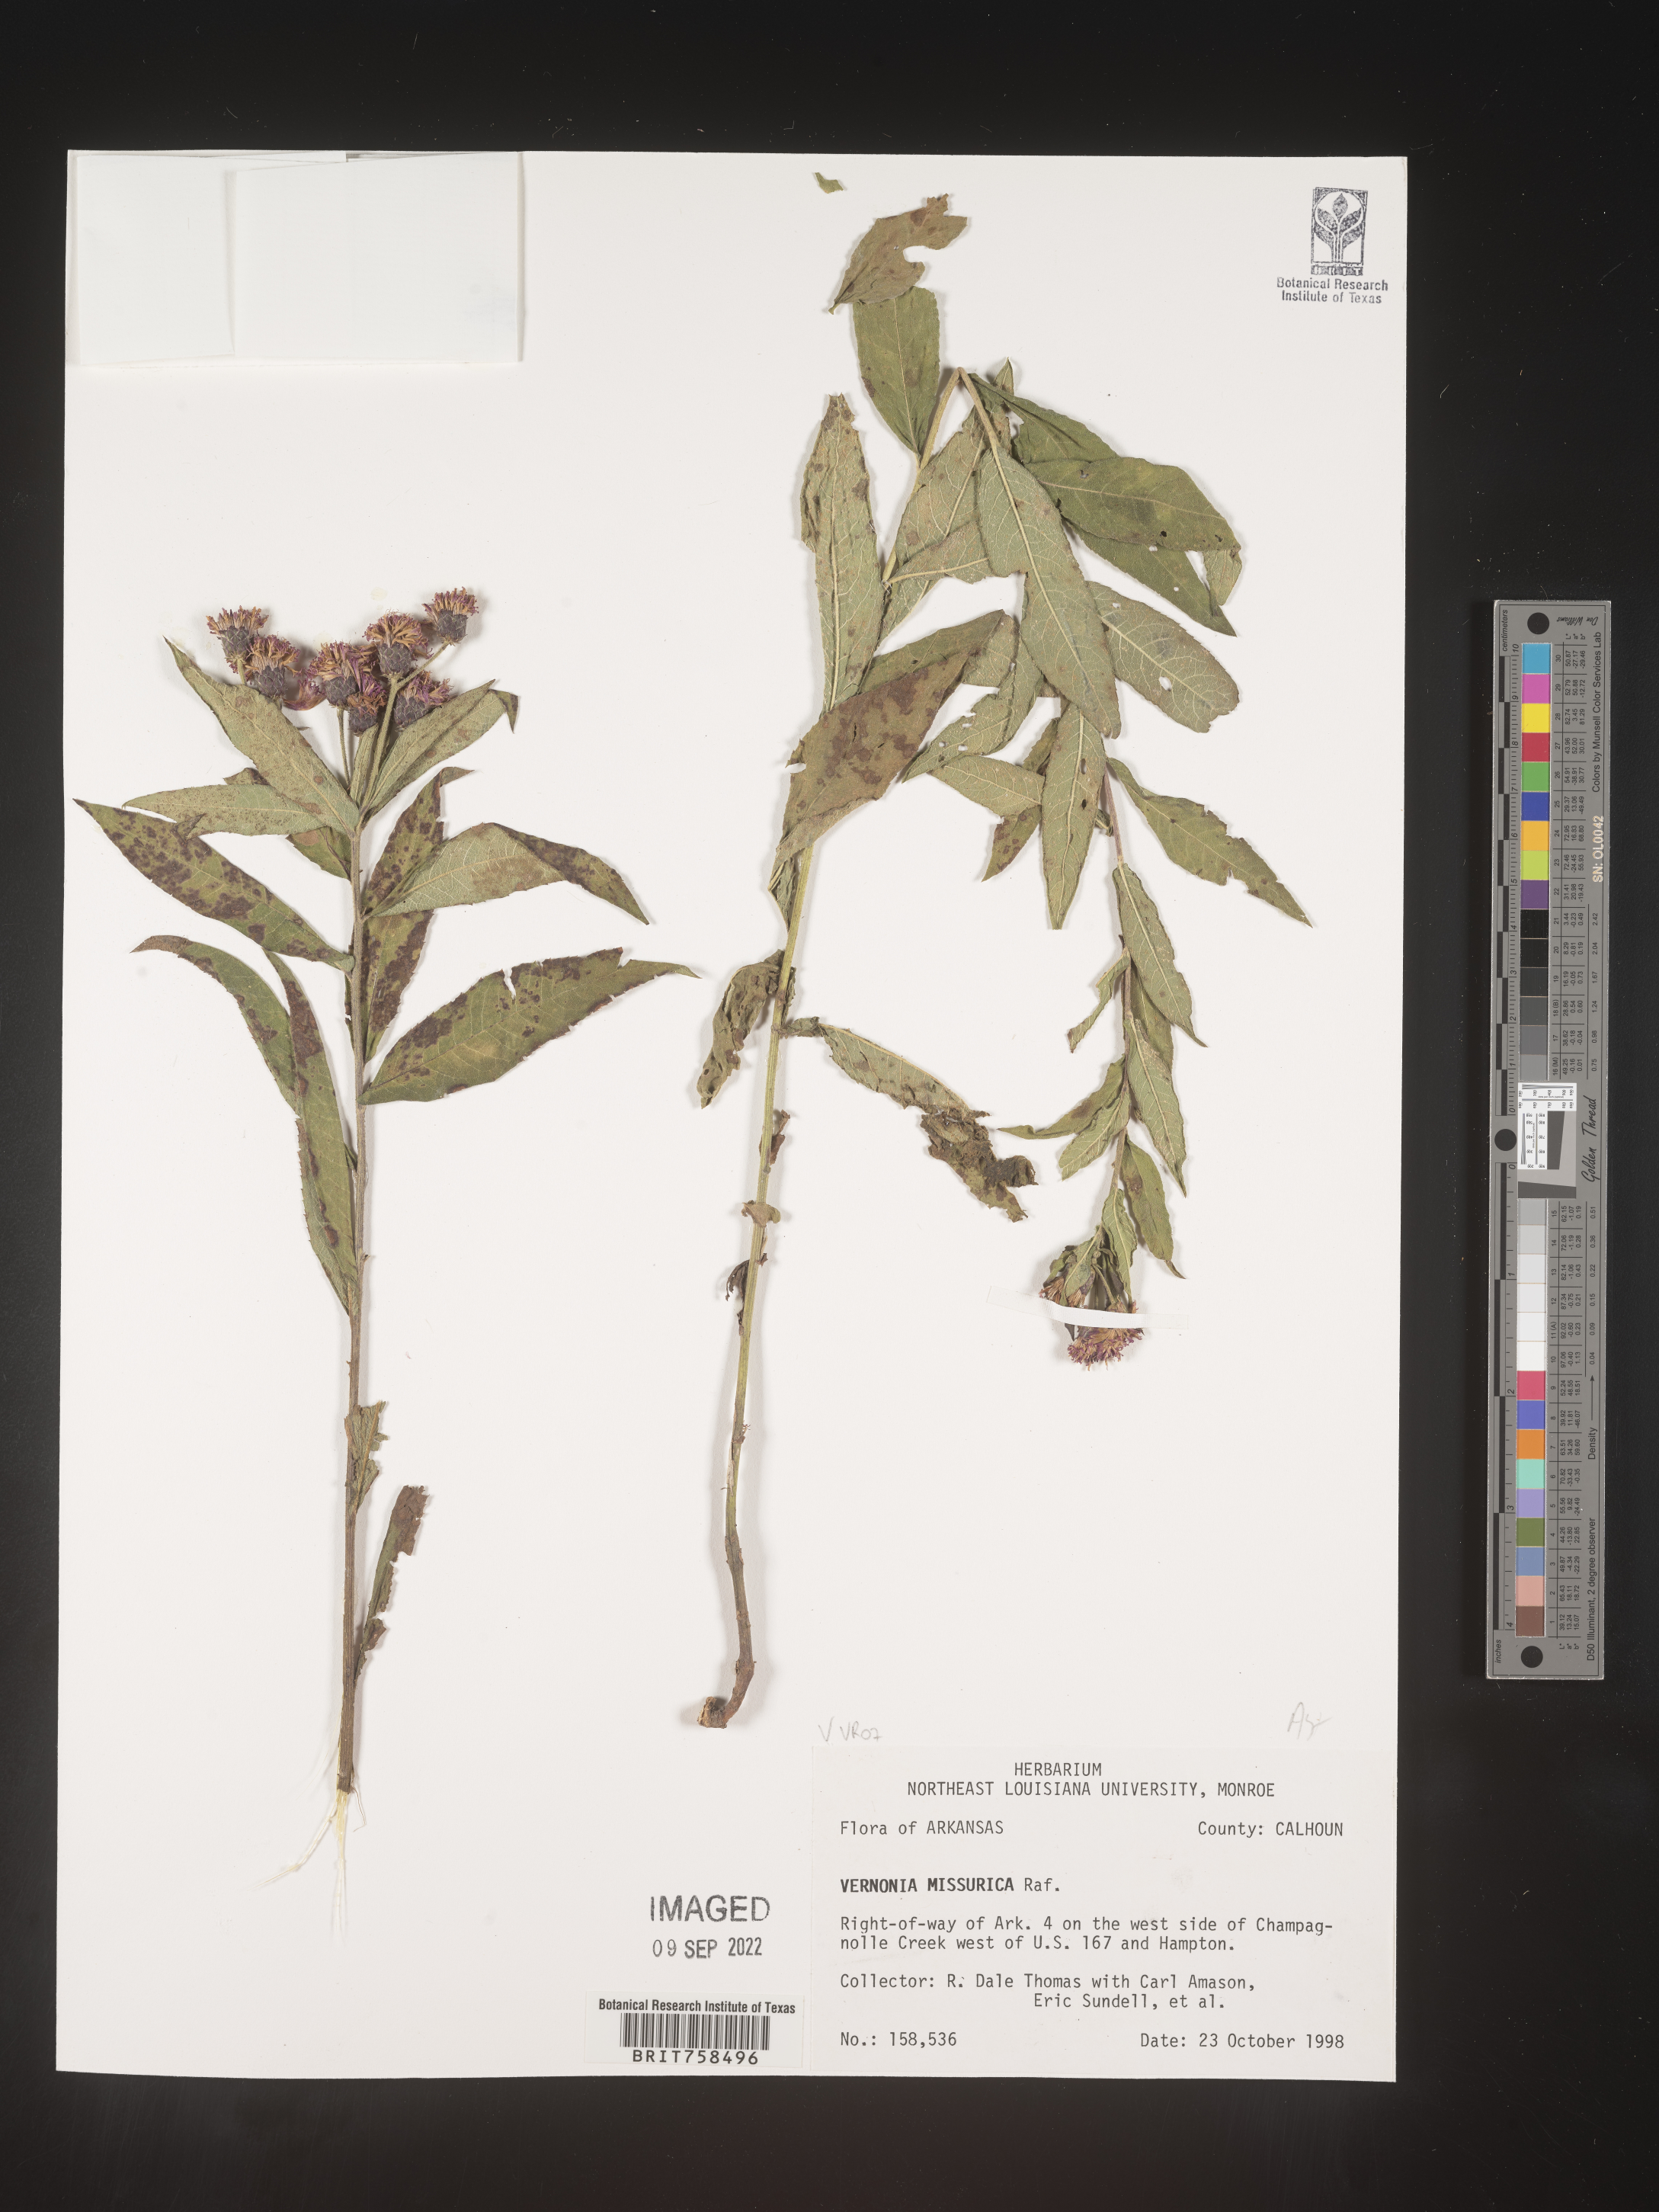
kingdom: Plantae
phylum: Tracheophyta
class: Magnoliopsida
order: Asterales
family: Asteraceae
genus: Vernonia
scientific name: Vernonia missurica
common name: Missouri ironweed
